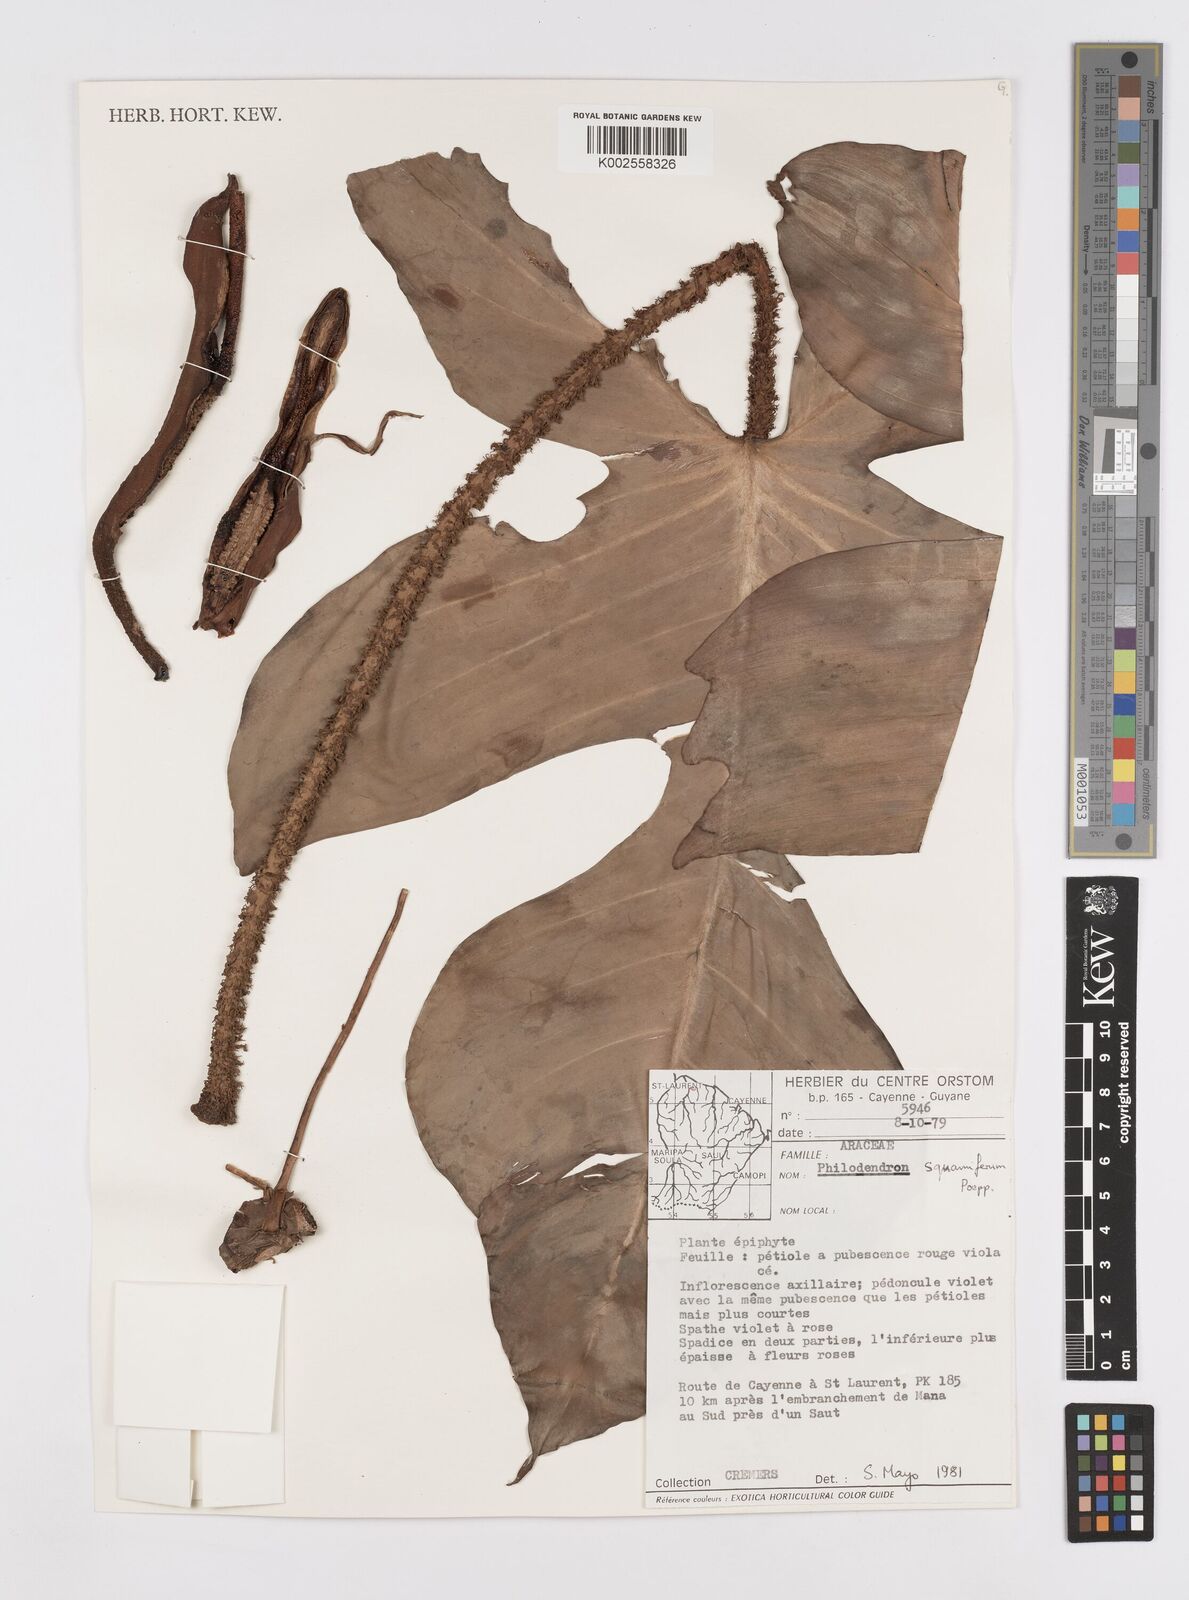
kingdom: Plantae
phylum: Tracheophyta
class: Liliopsida
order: Alismatales
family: Araceae
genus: Philodendron
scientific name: Philodendron squamiferum
